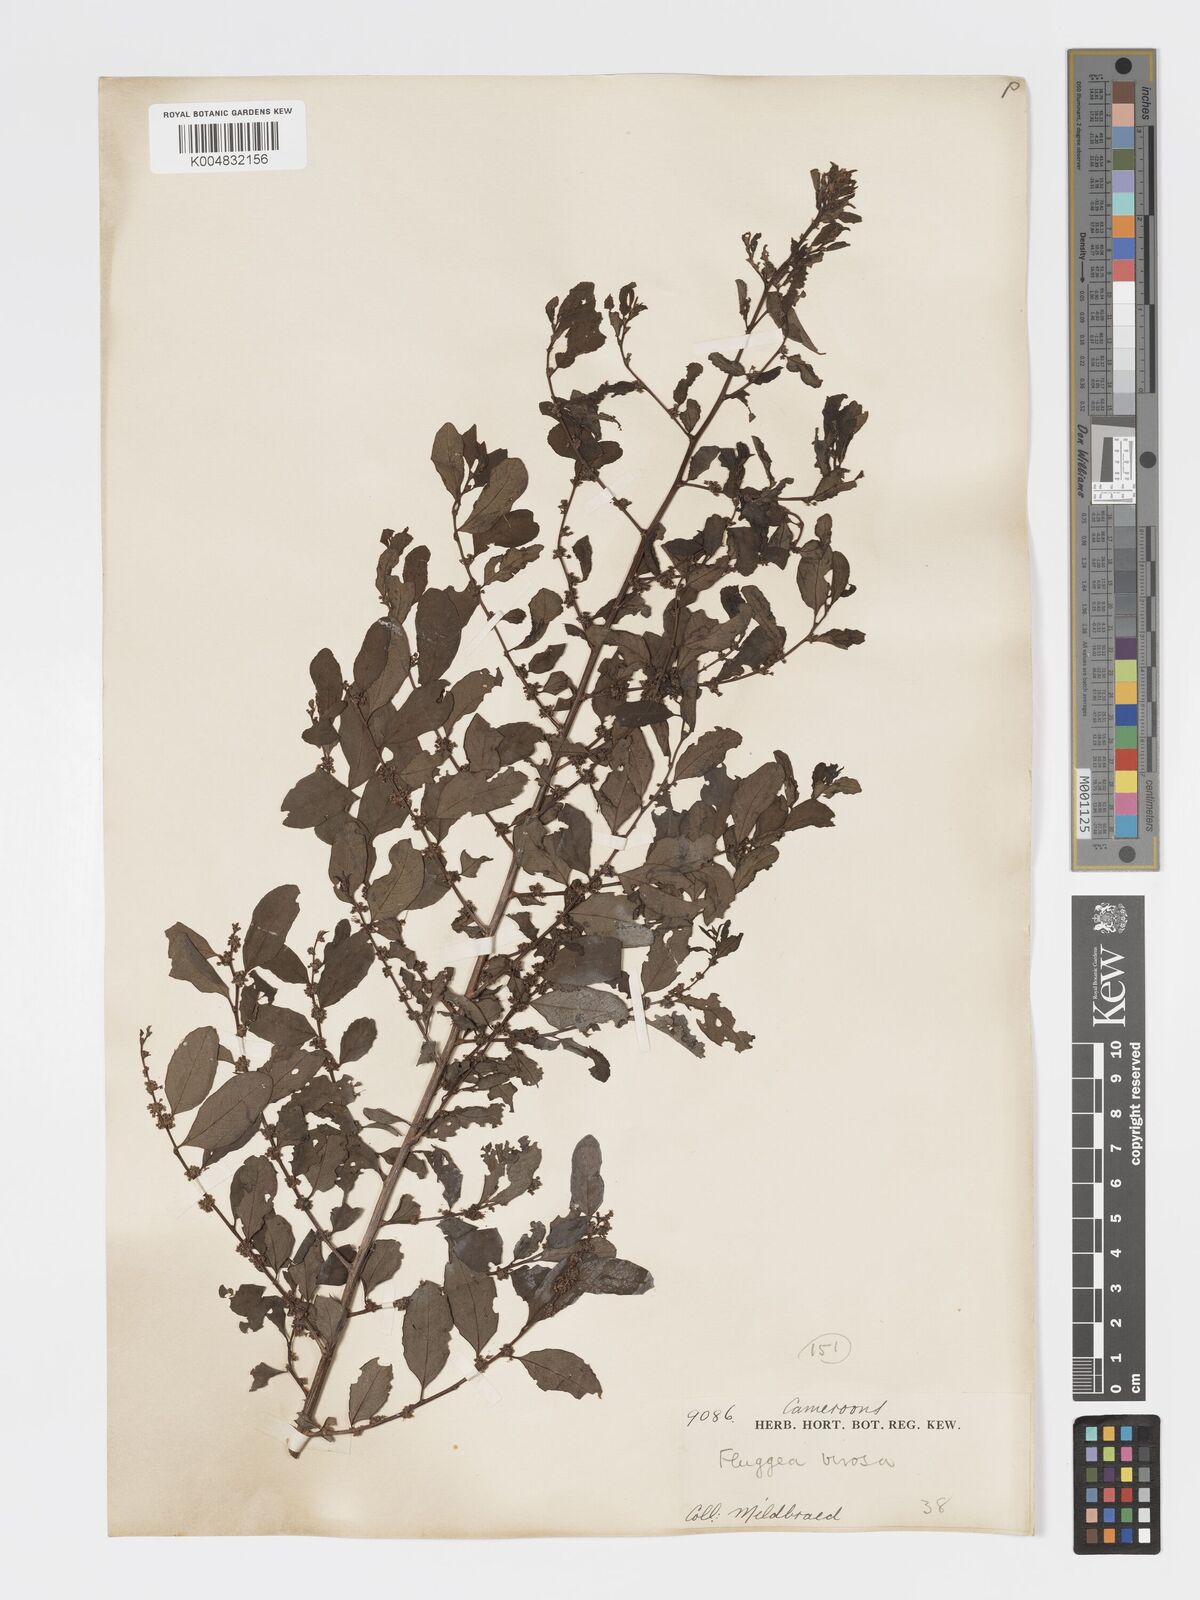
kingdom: Plantae
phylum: Tracheophyta
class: Magnoliopsida
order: Malpighiales
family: Phyllanthaceae
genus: Flueggea
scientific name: Flueggea virosa
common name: Common bushweed
